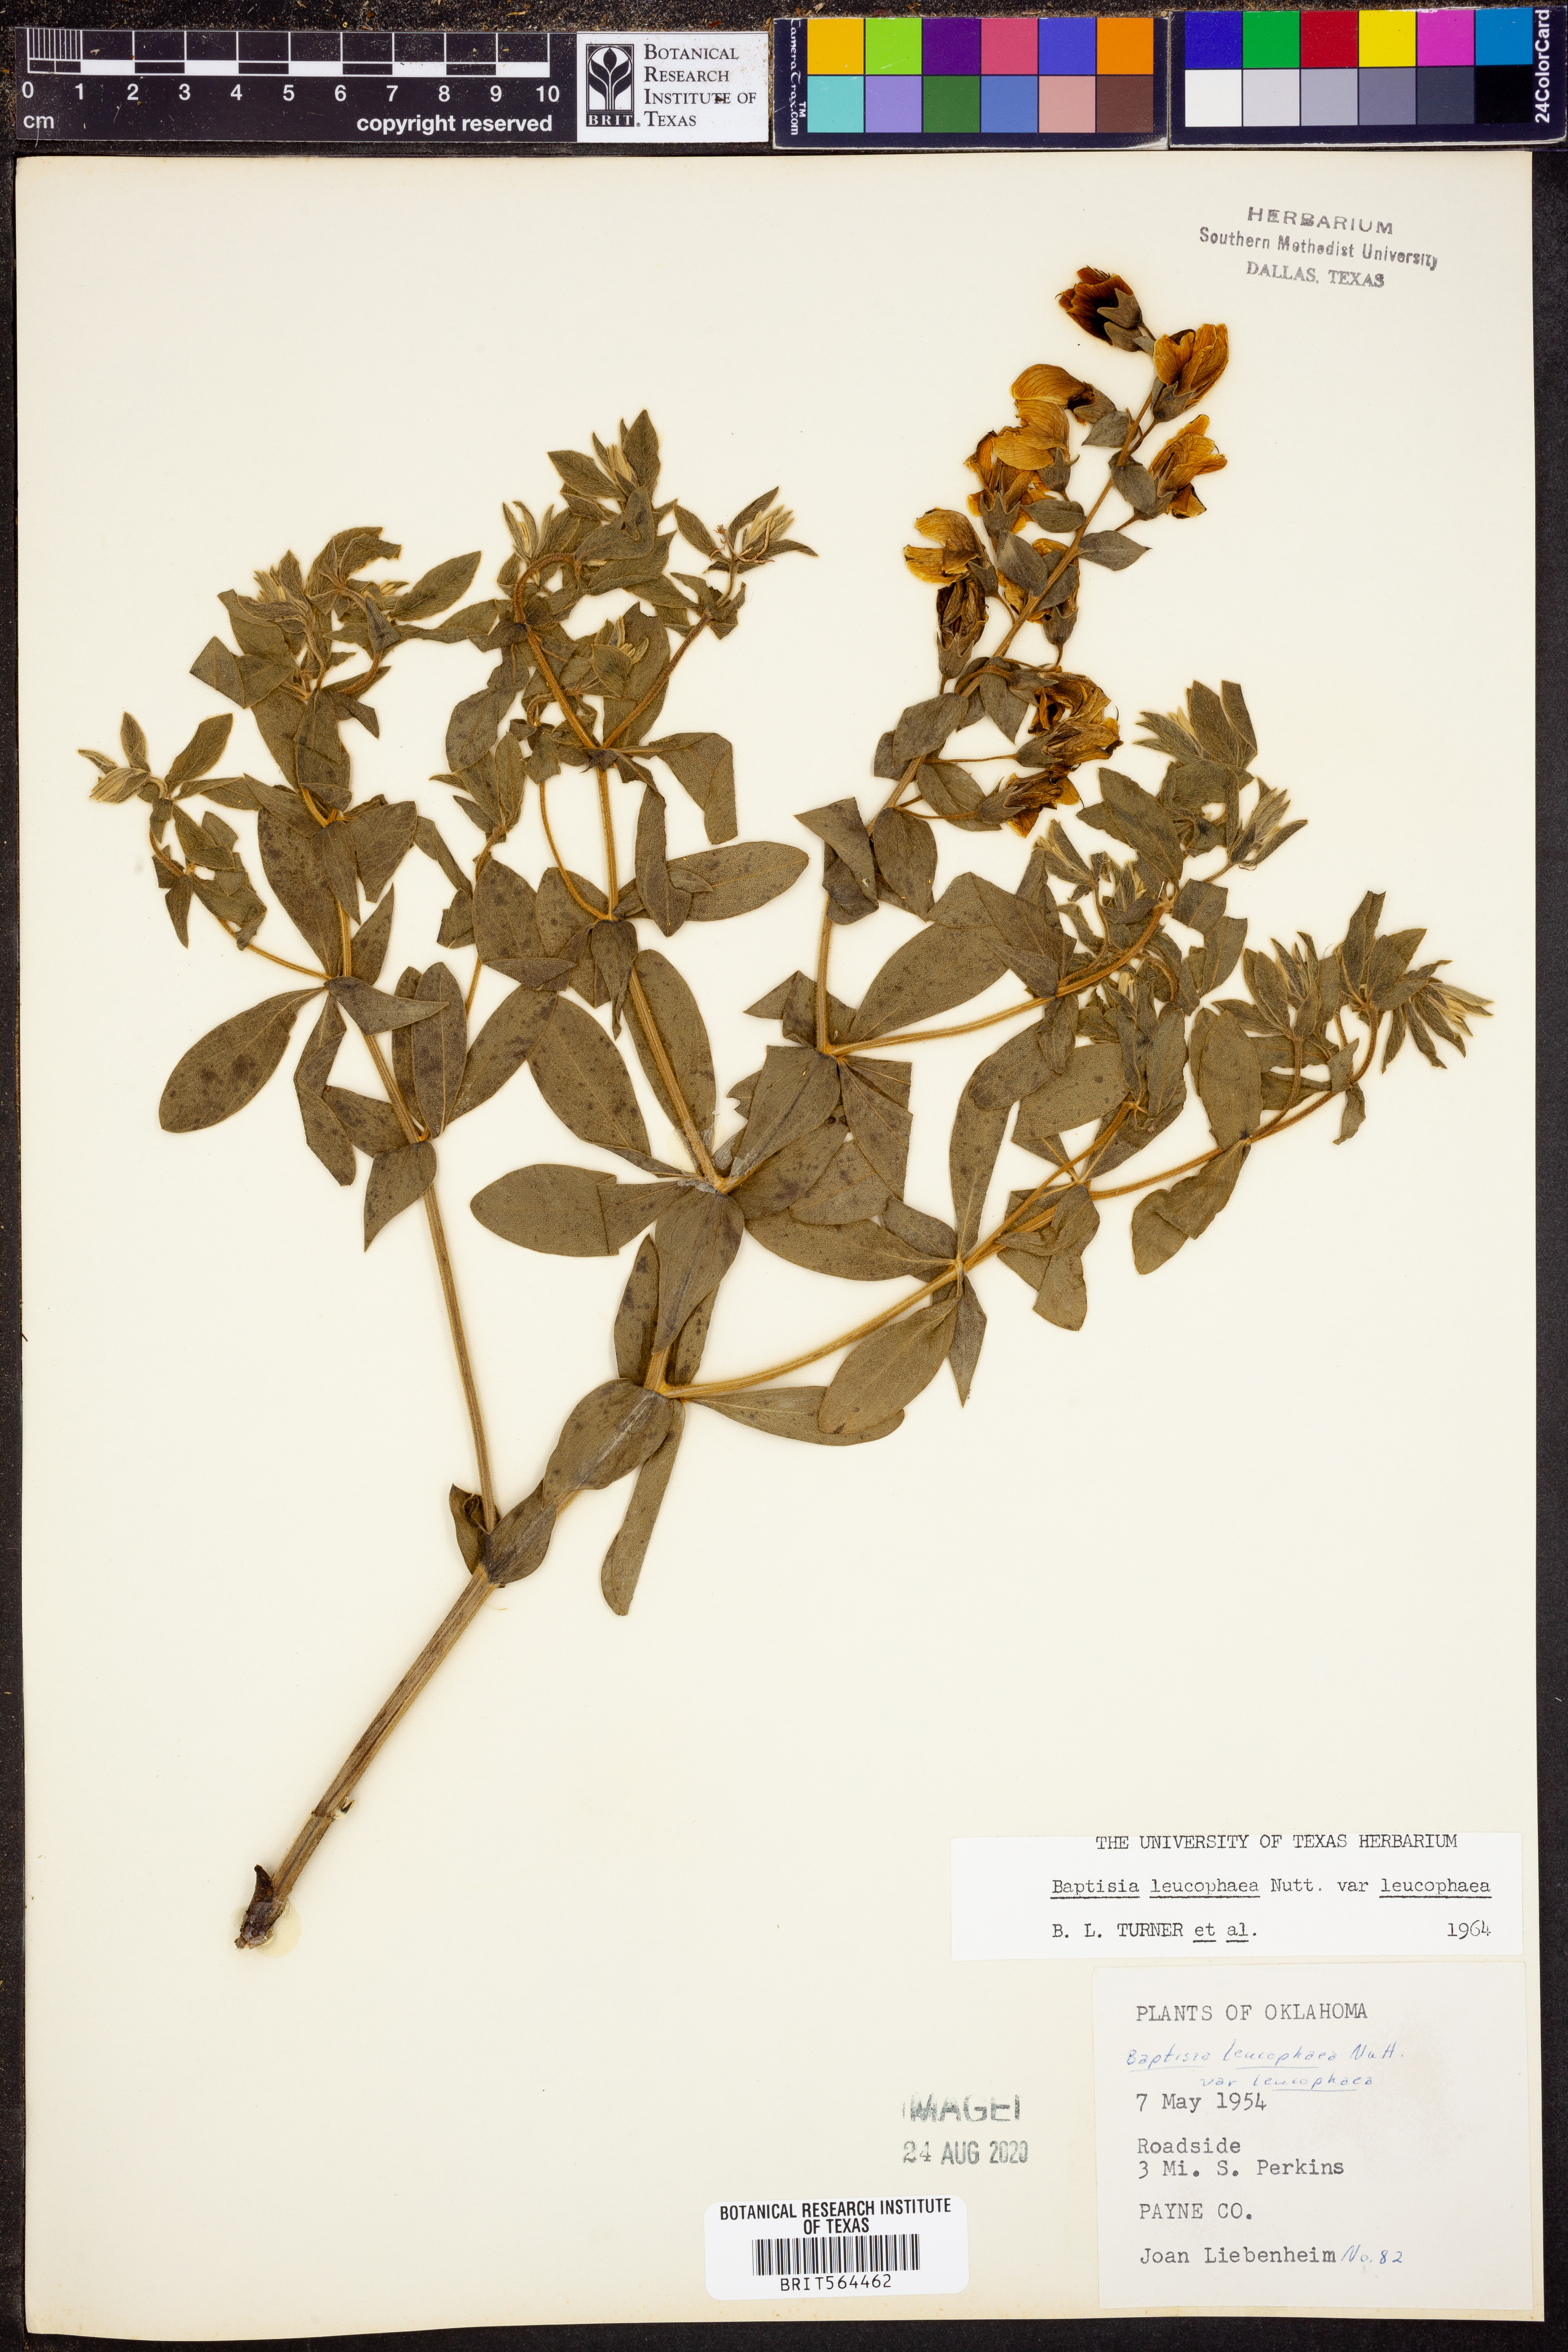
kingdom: Plantae
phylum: Tracheophyta
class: Magnoliopsida
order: Fabales
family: Fabaceae
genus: Baptisia
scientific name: Baptisia bracteata
